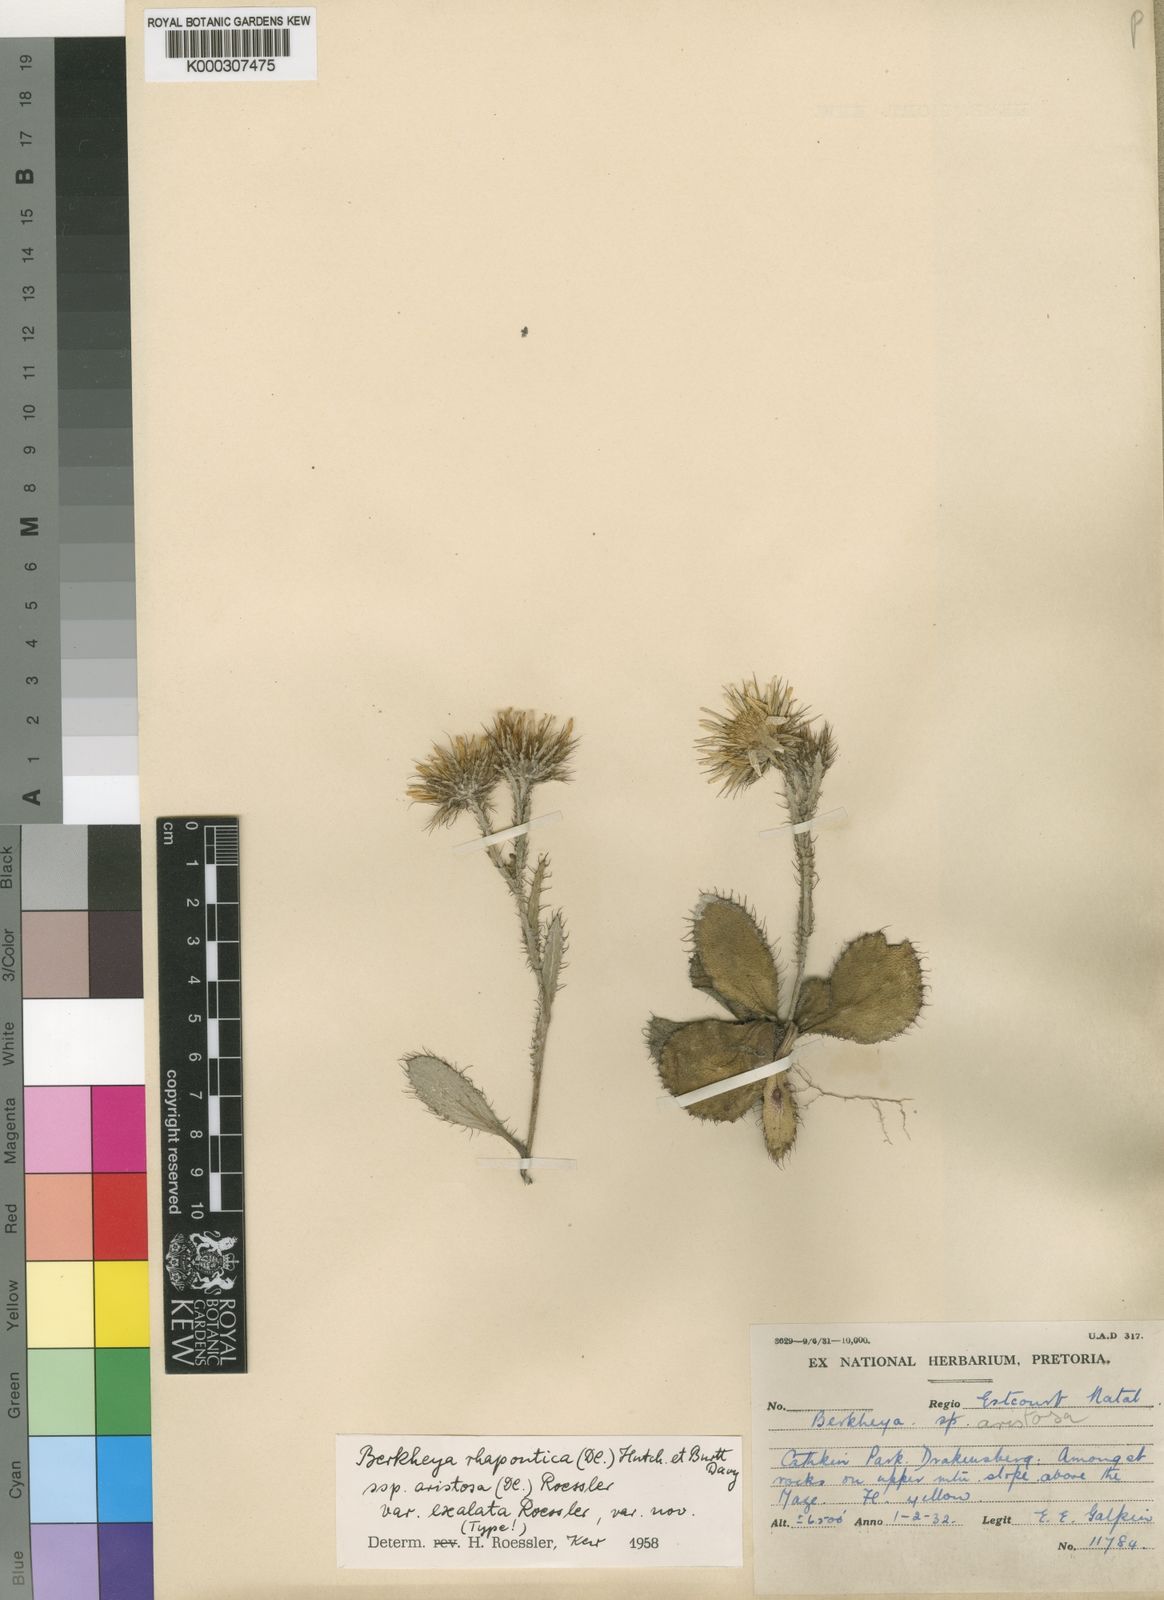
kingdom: Plantae
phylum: Tracheophyta
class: Magnoliopsida
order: Asterales
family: Asteraceae
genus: Berkheya
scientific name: Berkheya rhapontica
